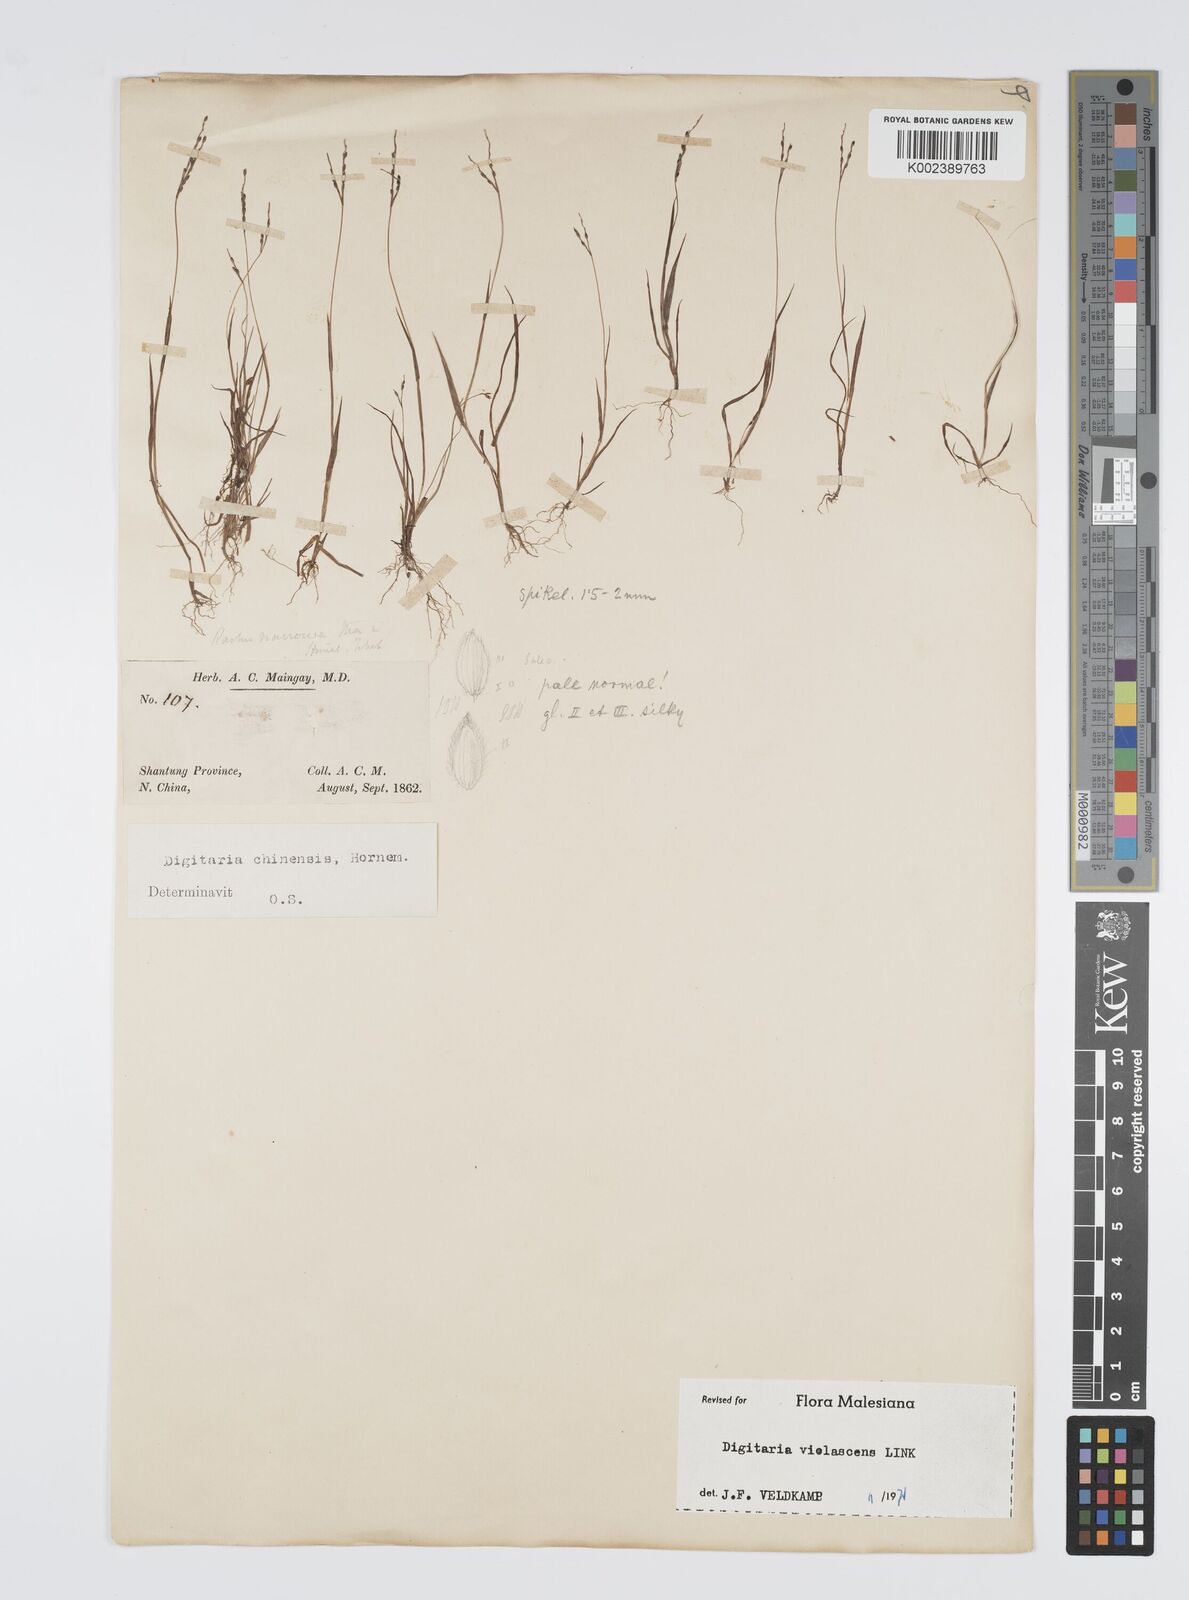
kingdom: Plantae
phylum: Tracheophyta
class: Liliopsida
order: Poales
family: Poaceae
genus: Digitaria
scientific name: Digitaria violascens
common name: Violet crabgrass
